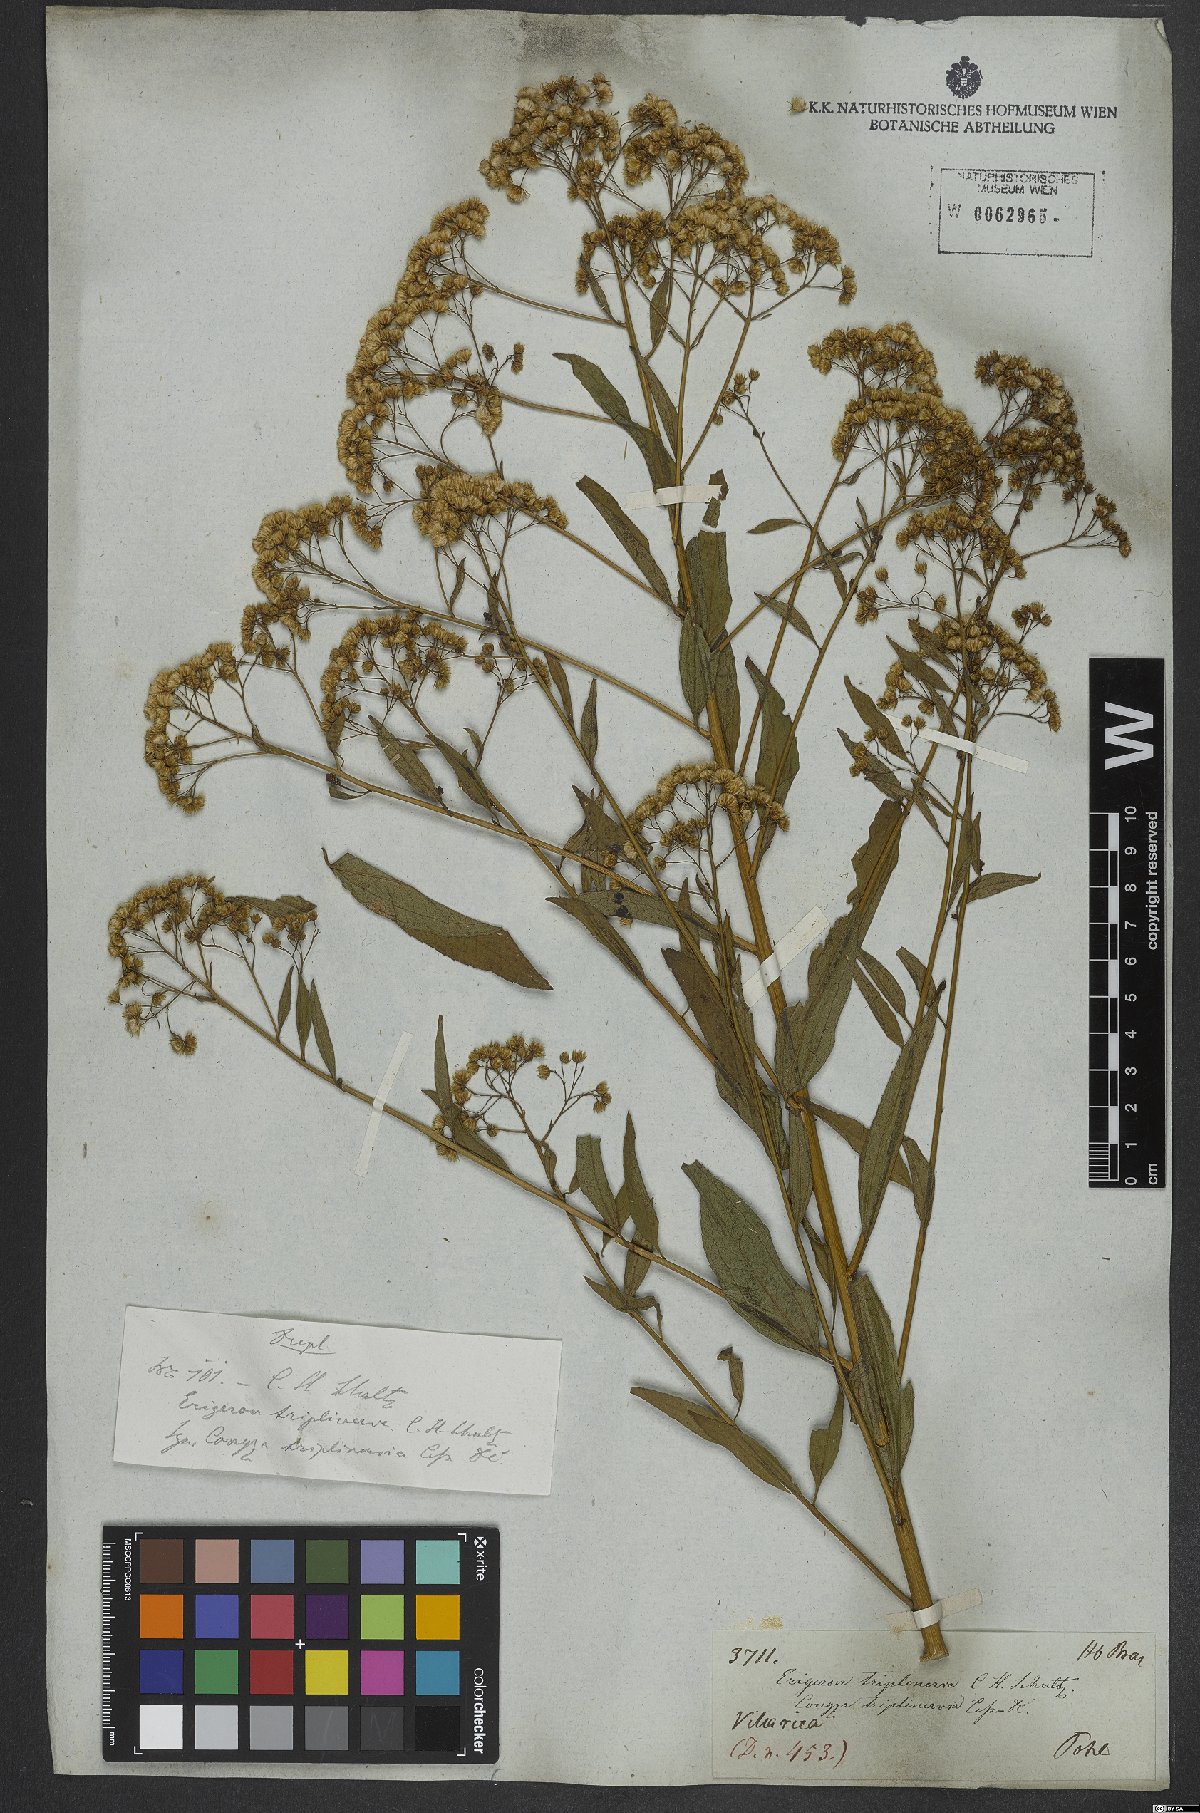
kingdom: Plantae
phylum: Tracheophyta
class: Magnoliopsida
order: Asterales
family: Asteraceae
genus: Archibaccharis
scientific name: Archibaccharis vulneraria
